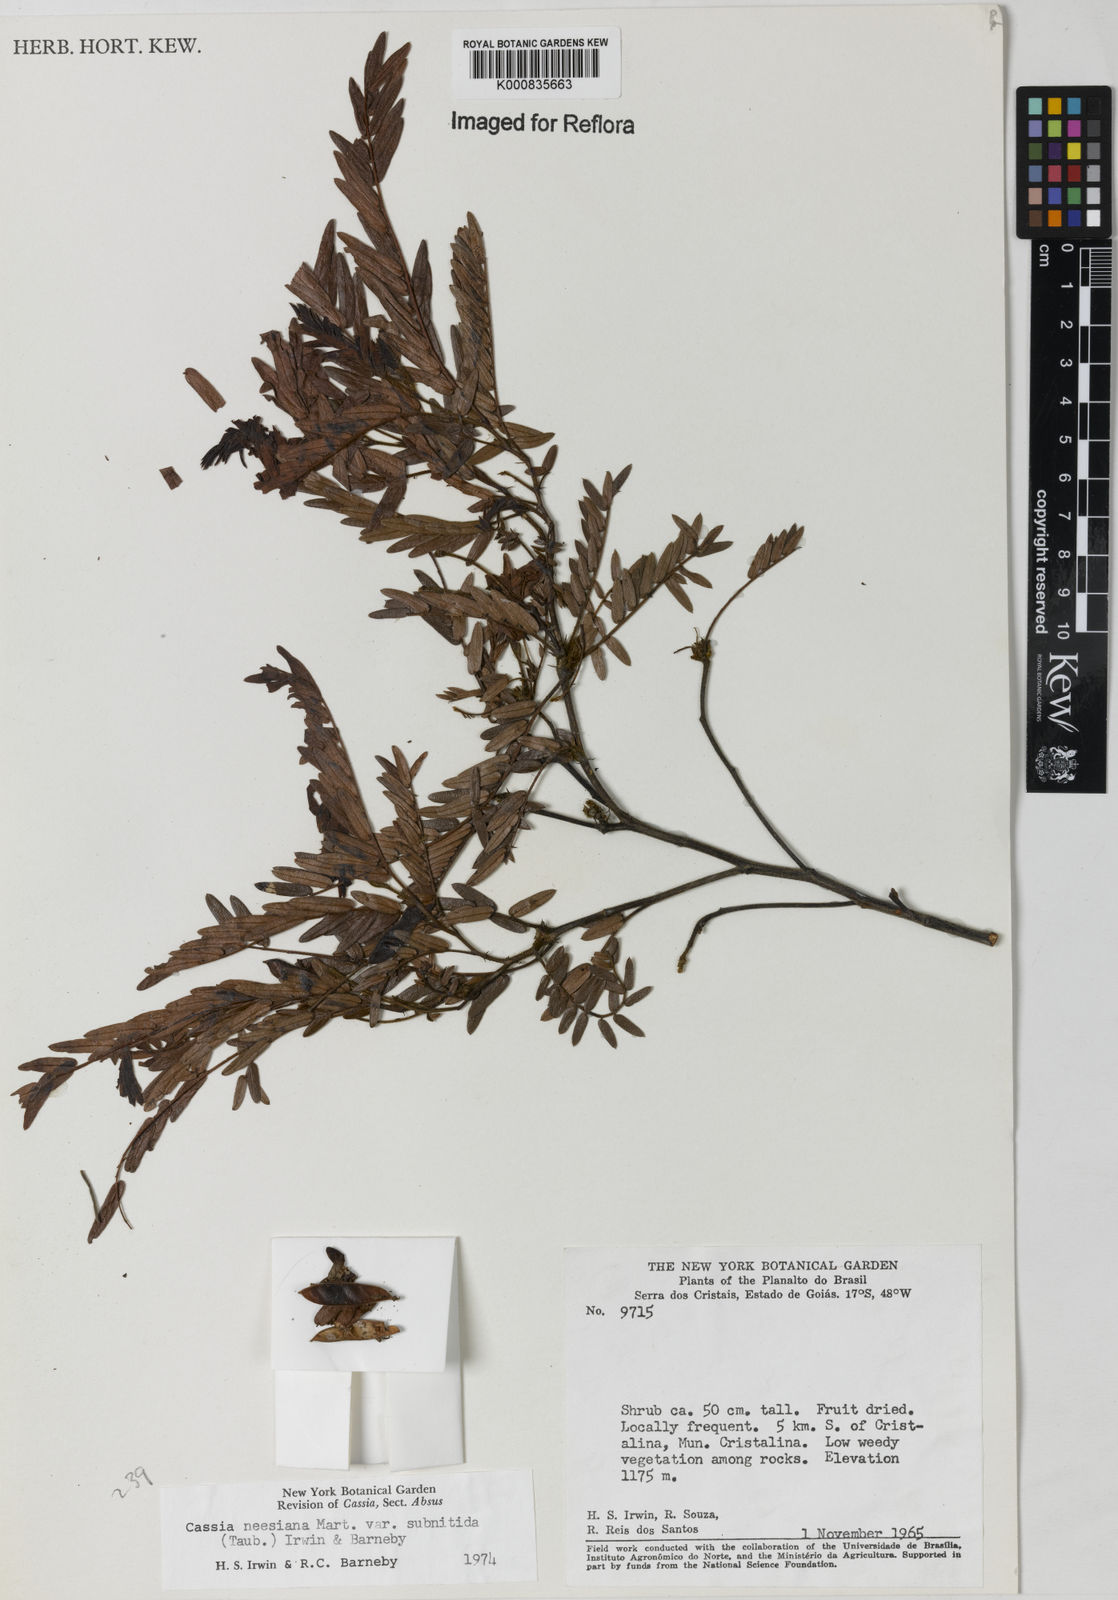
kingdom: Plantae
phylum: Tracheophyta
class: Magnoliopsida
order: Fabales
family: Fabaceae
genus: Chamaecrista
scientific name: Chamaecrista neesiana
